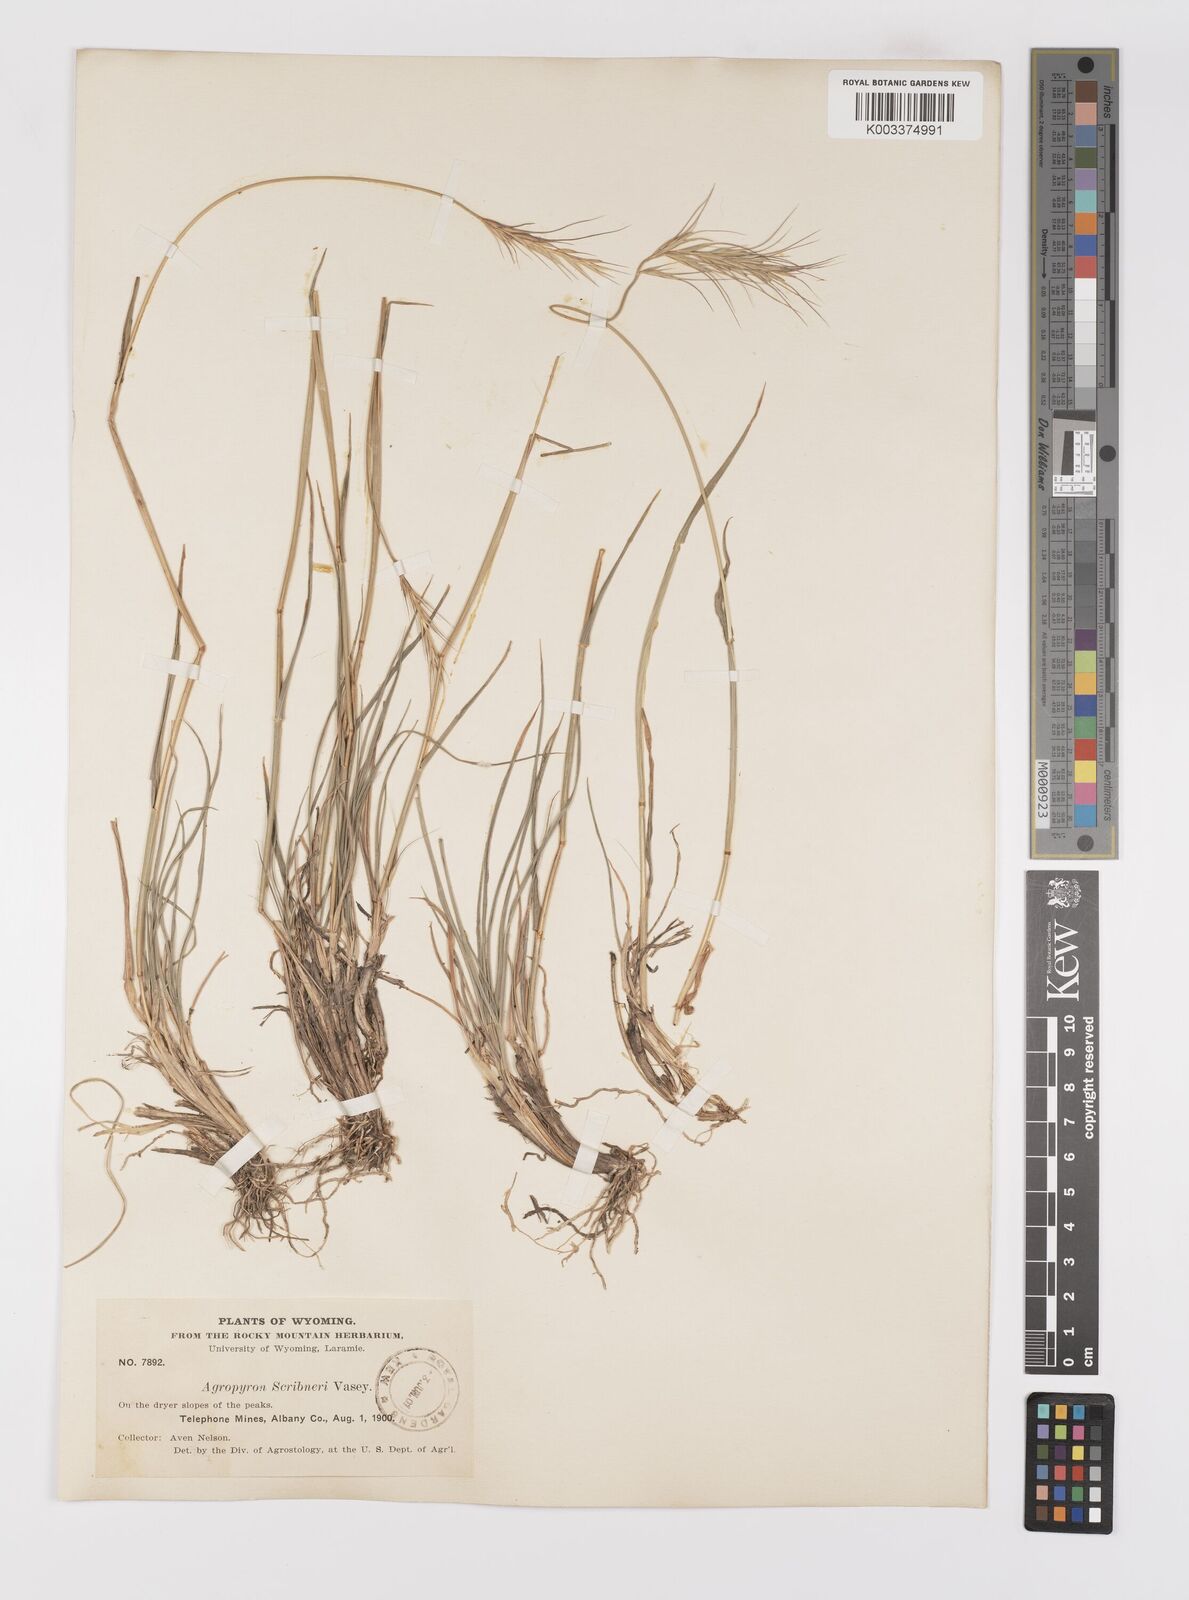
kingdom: Plantae
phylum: Tracheophyta
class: Liliopsida
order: Poales
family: Poaceae
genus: Elymus
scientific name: Elymus scribneri
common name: Scribner's wheatgrass
